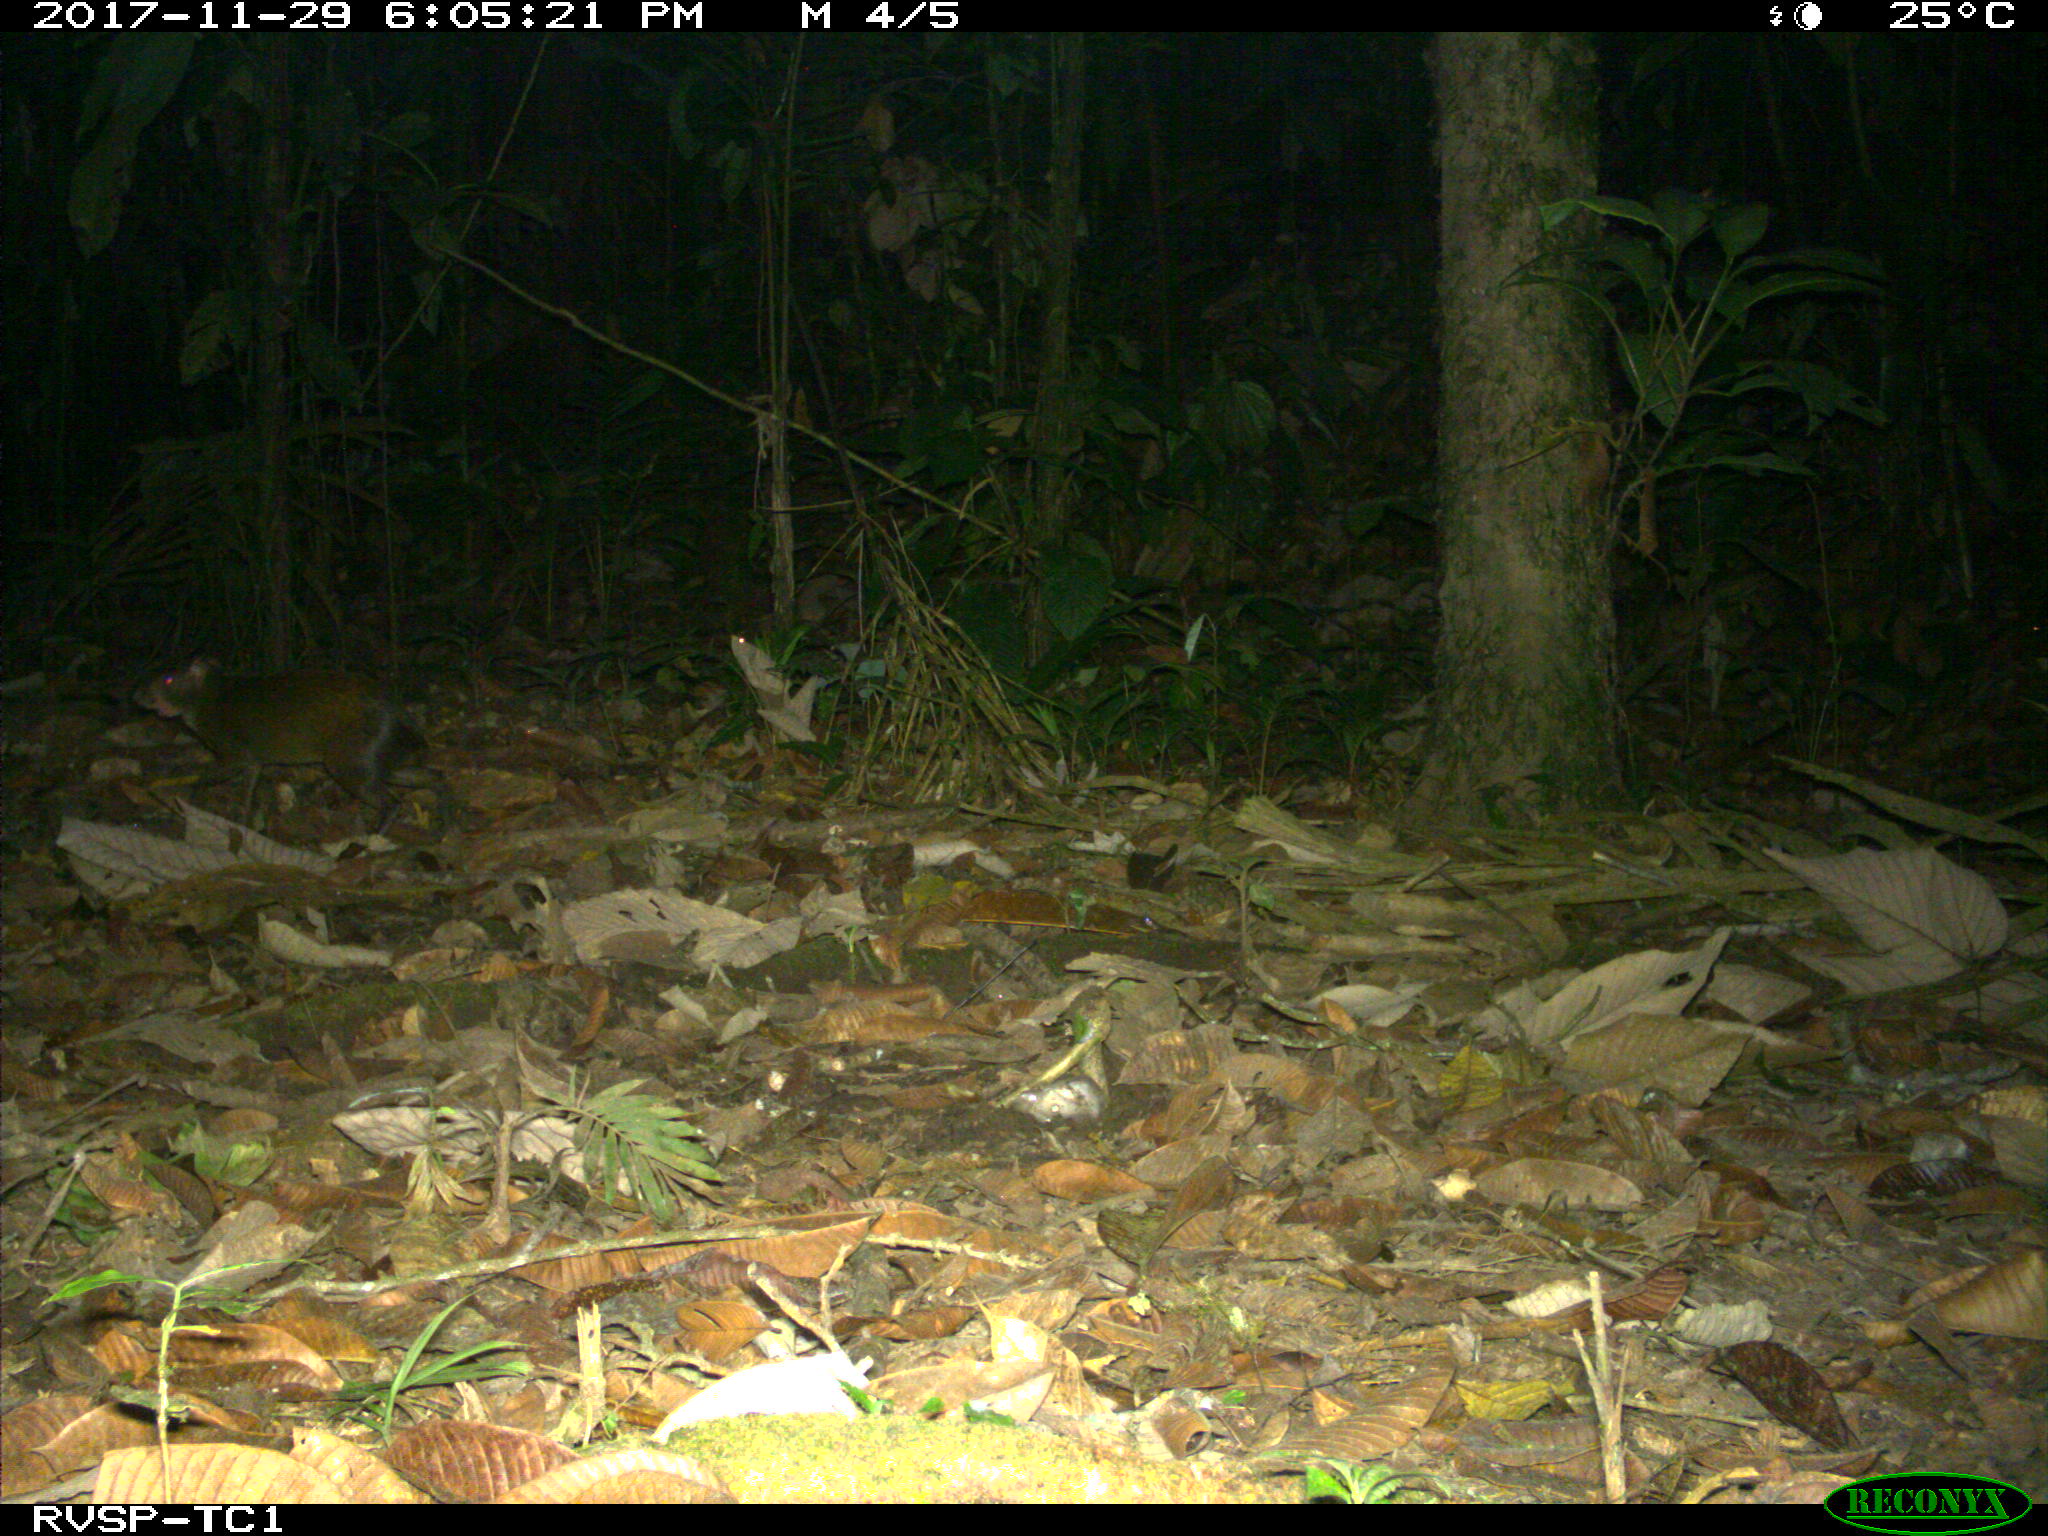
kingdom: Animalia
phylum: Chordata
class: Mammalia
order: Rodentia
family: Dasyproctidae
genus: Dasyprocta
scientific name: Dasyprocta punctata
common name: Central american agouti
